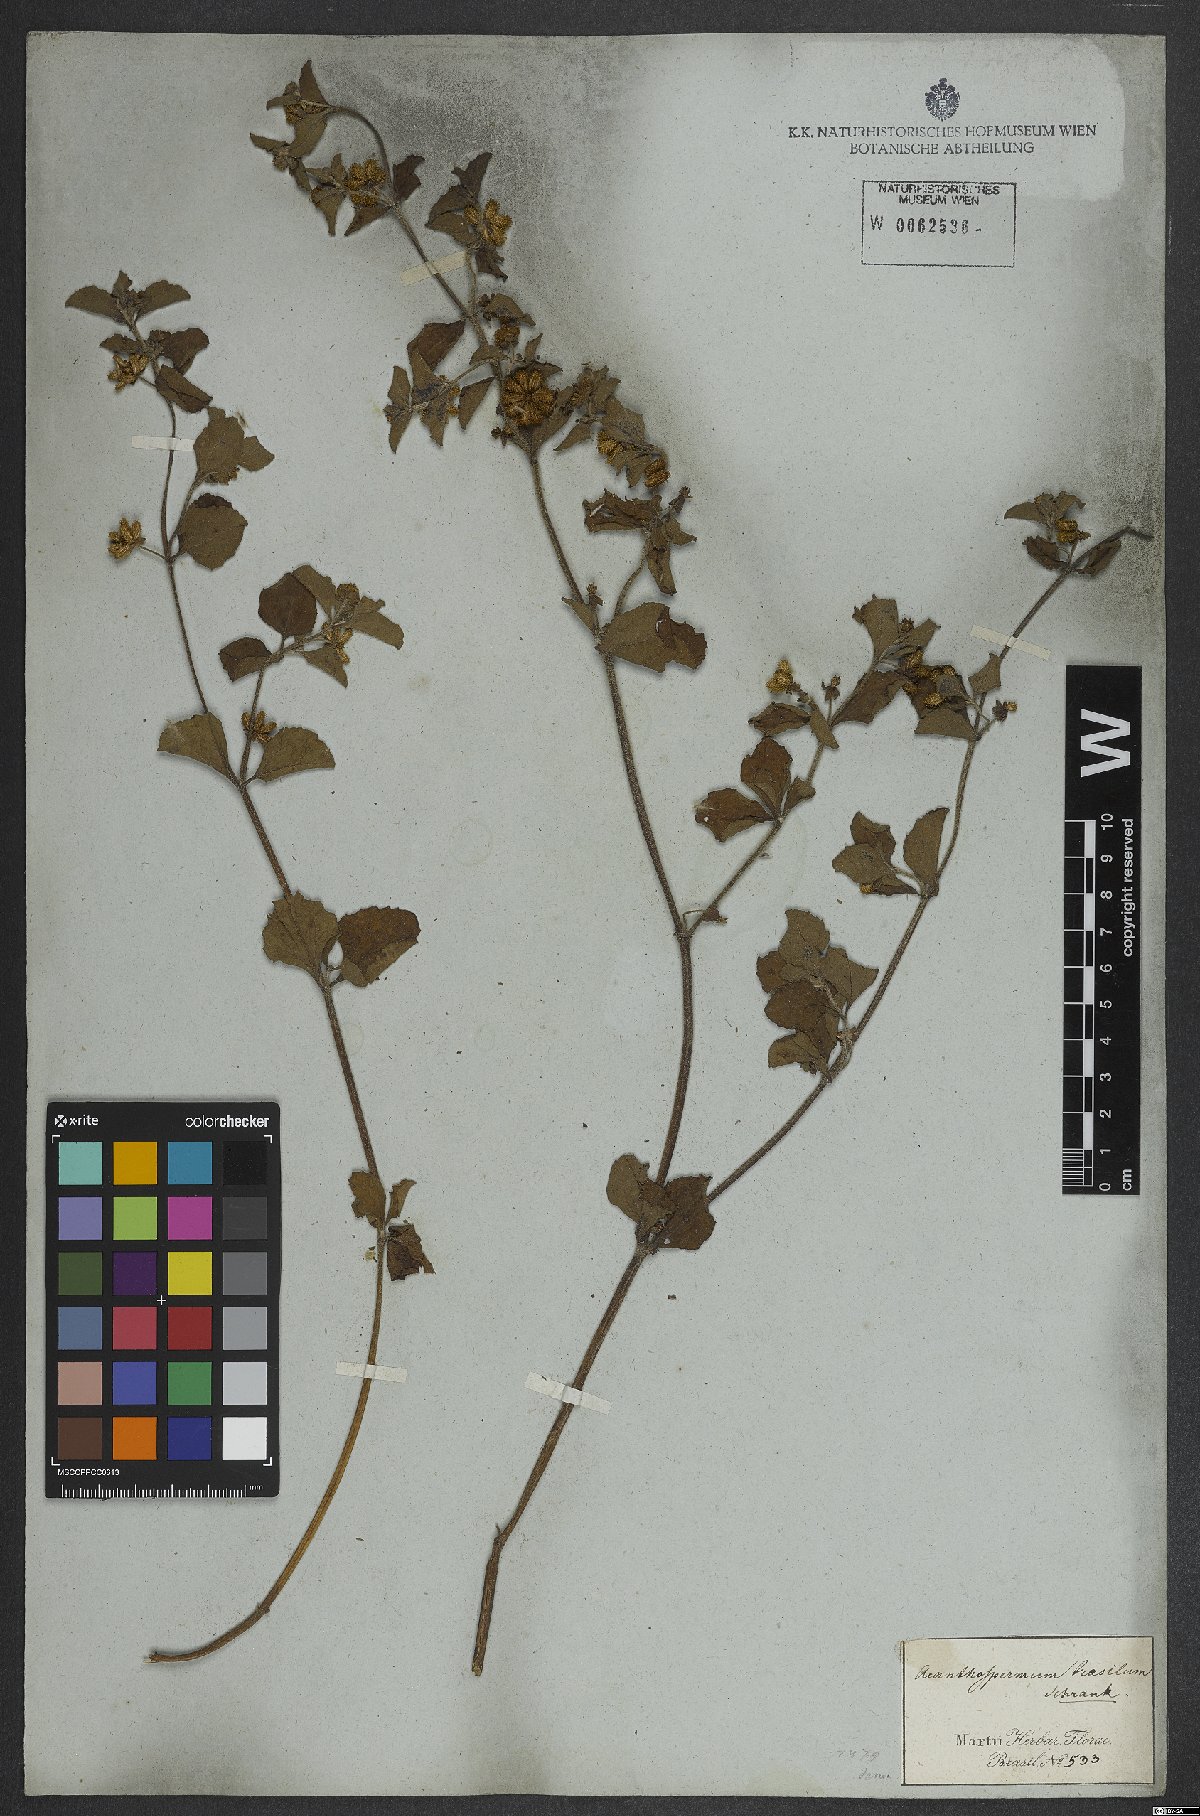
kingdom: Plantae
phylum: Tracheophyta
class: Magnoliopsida
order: Asterales
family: Asteraceae
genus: Acanthospermum
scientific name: Acanthospermum australe
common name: Paraguayan starbur
